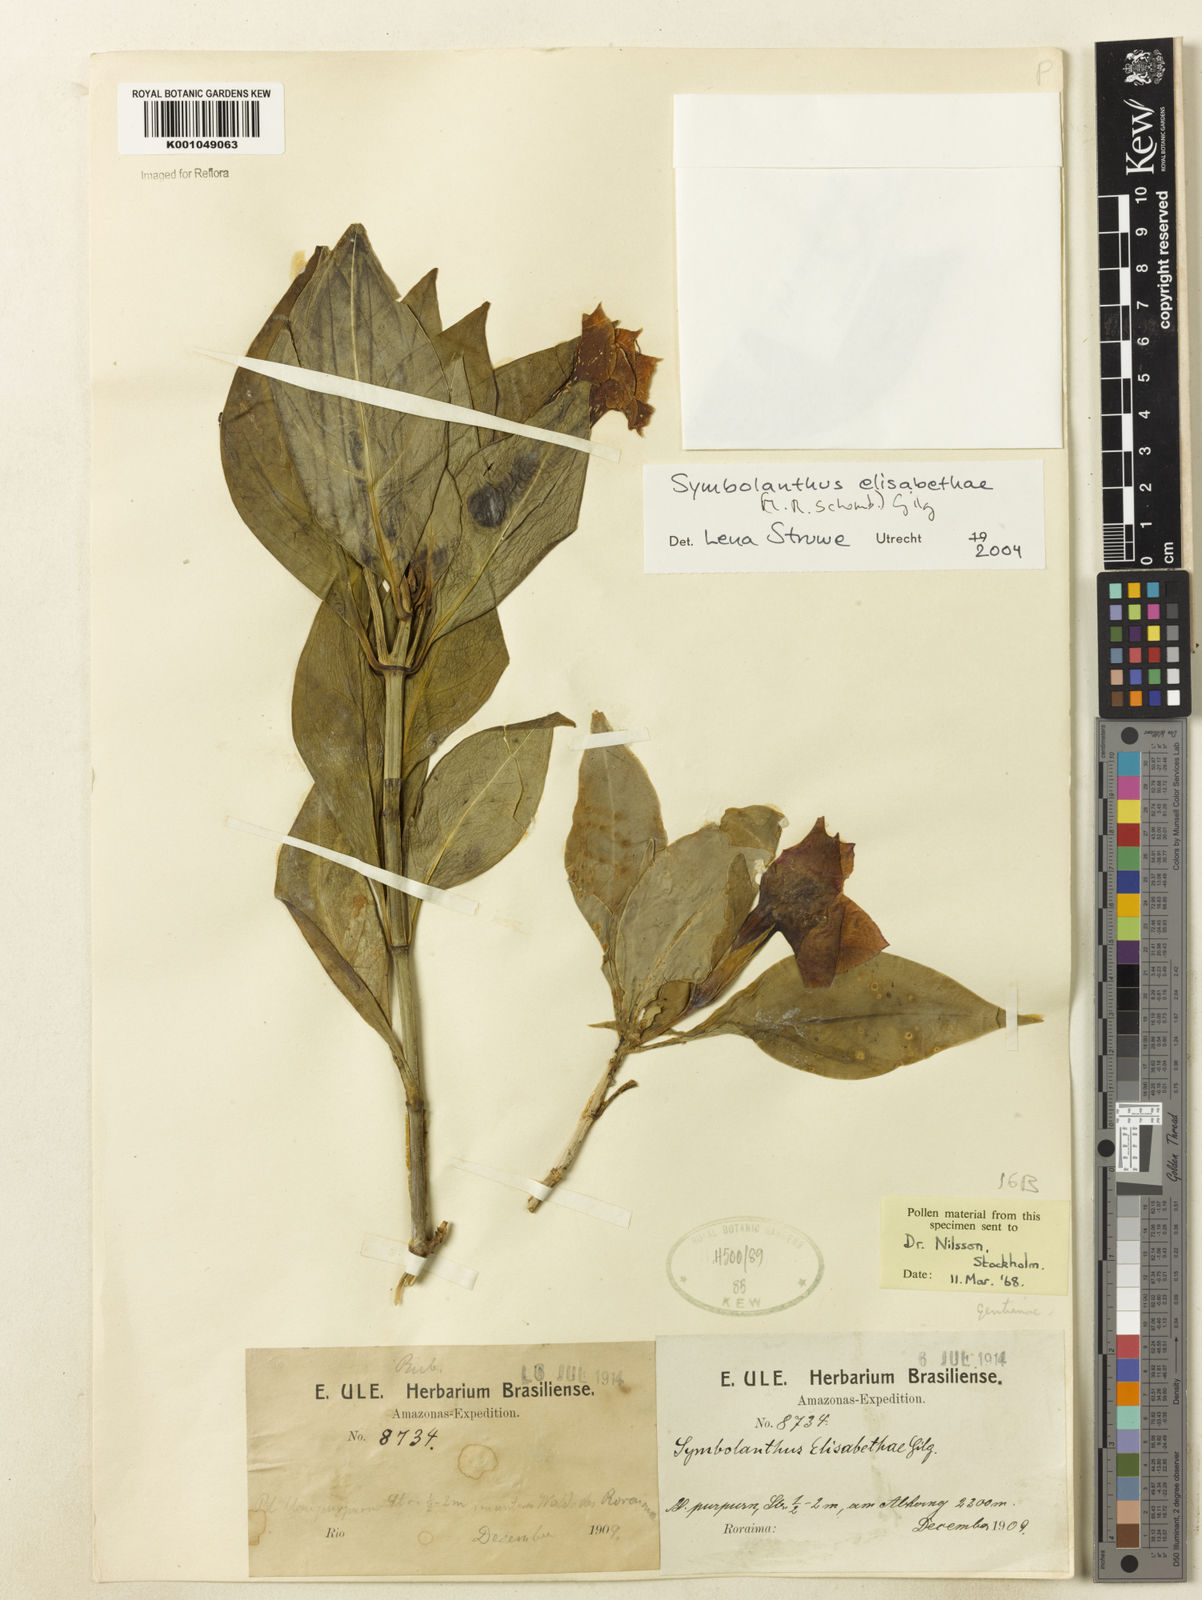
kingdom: Plantae
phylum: Tracheophyta
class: Magnoliopsida
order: Gentianales
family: Gentianaceae
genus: Symbolanthus
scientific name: Symbolanthus elisabethae
